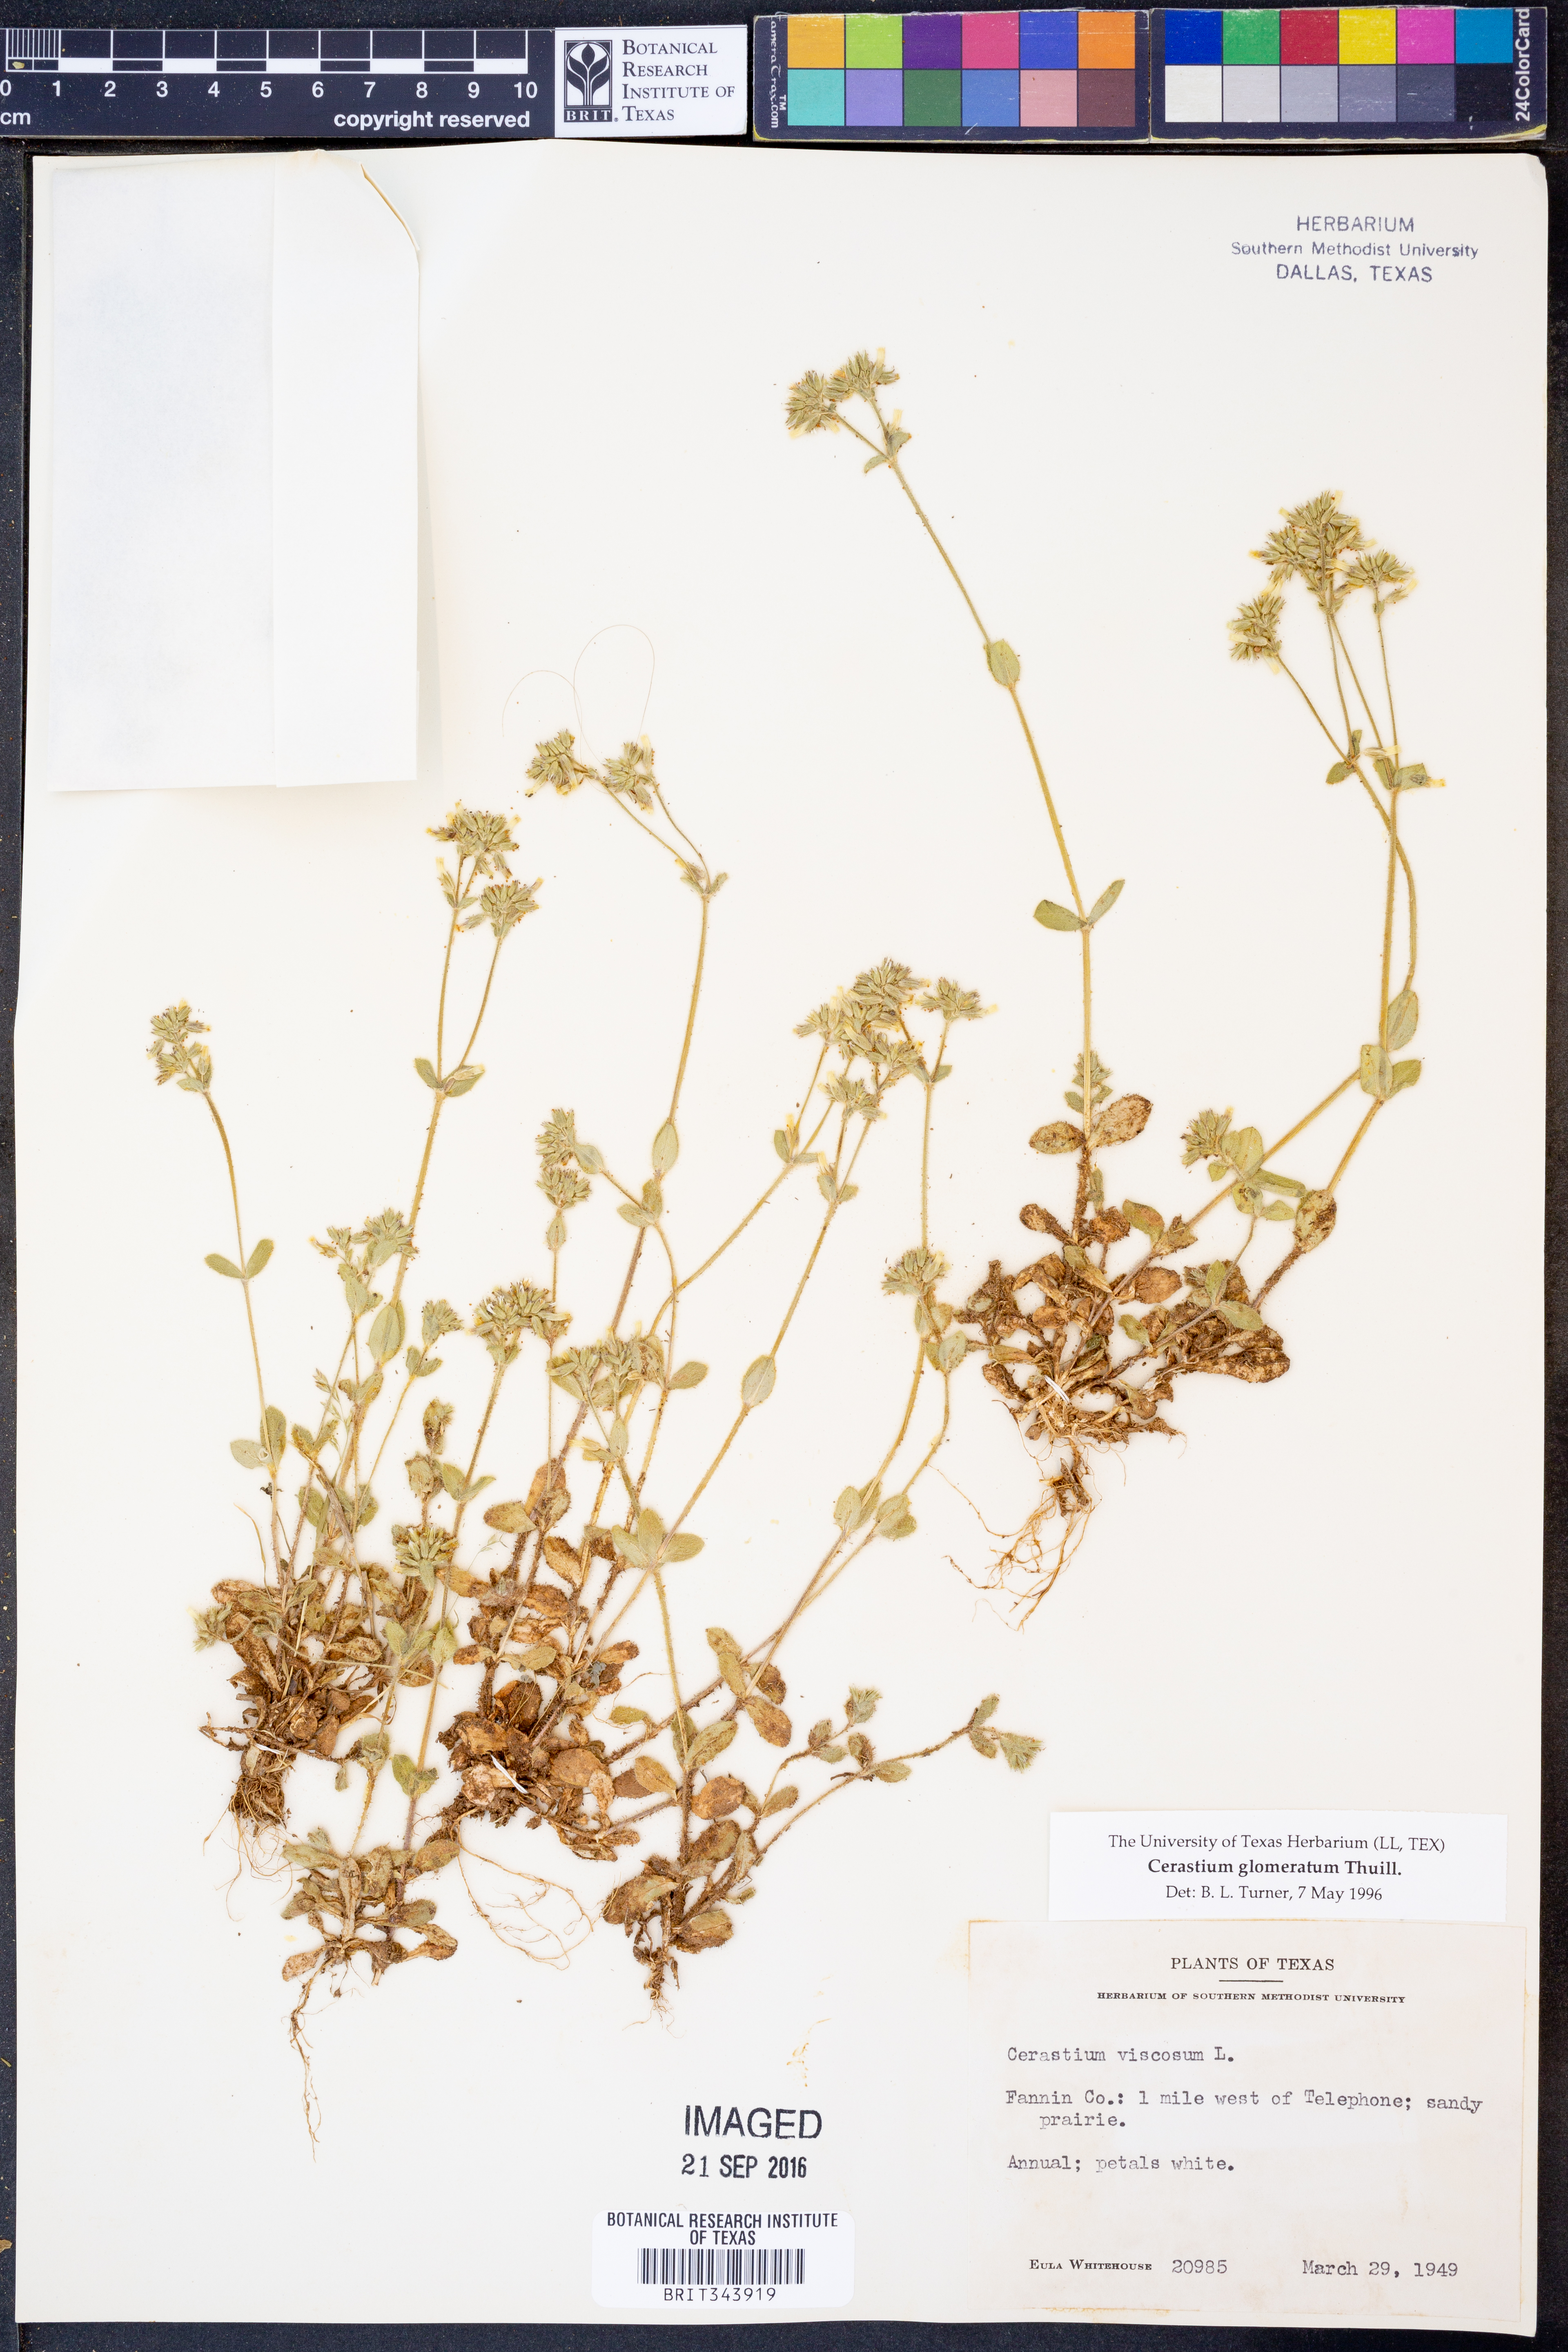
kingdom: Plantae
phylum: Tracheophyta
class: Magnoliopsida
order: Caryophyllales
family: Caryophyllaceae
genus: Cerastium
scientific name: Cerastium glomeratum
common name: Sticky chickweed
